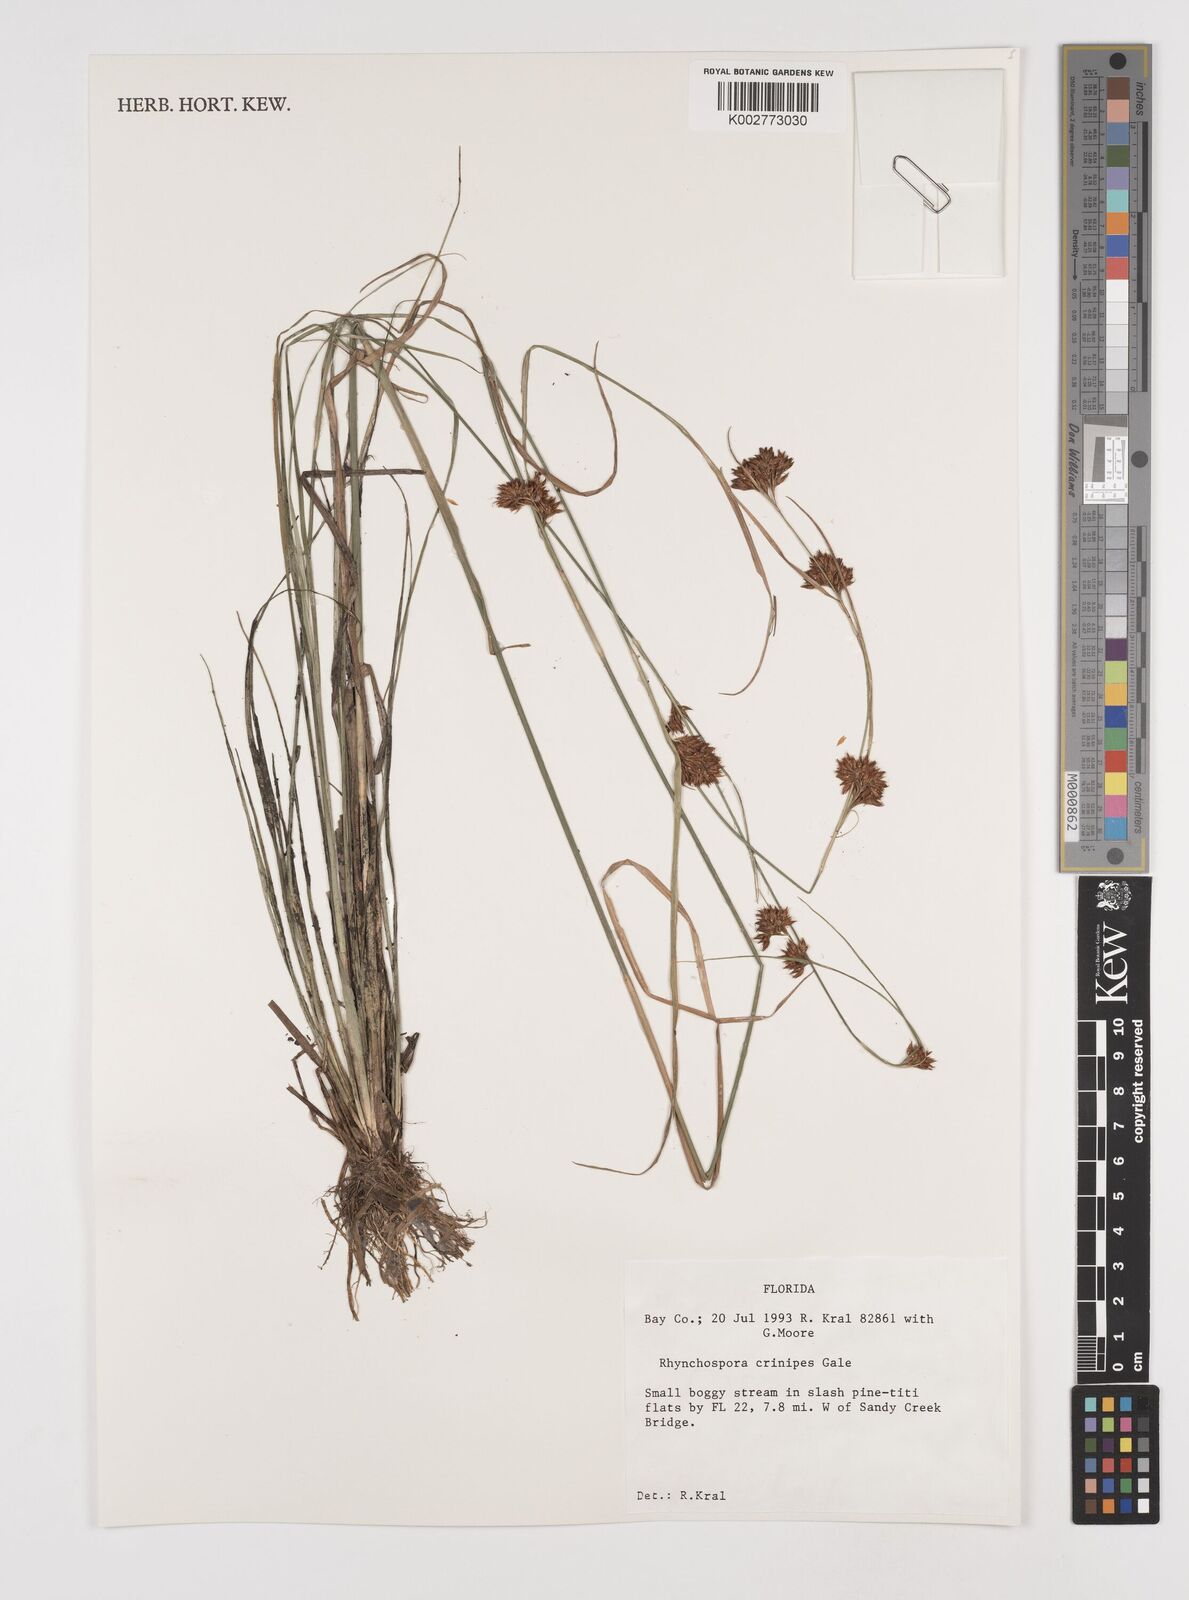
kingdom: Plantae
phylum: Tracheophyta
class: Liliopsida
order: Poales
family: Cyperaceae
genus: Rhynchospora
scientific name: Rhynchospora crinipes
